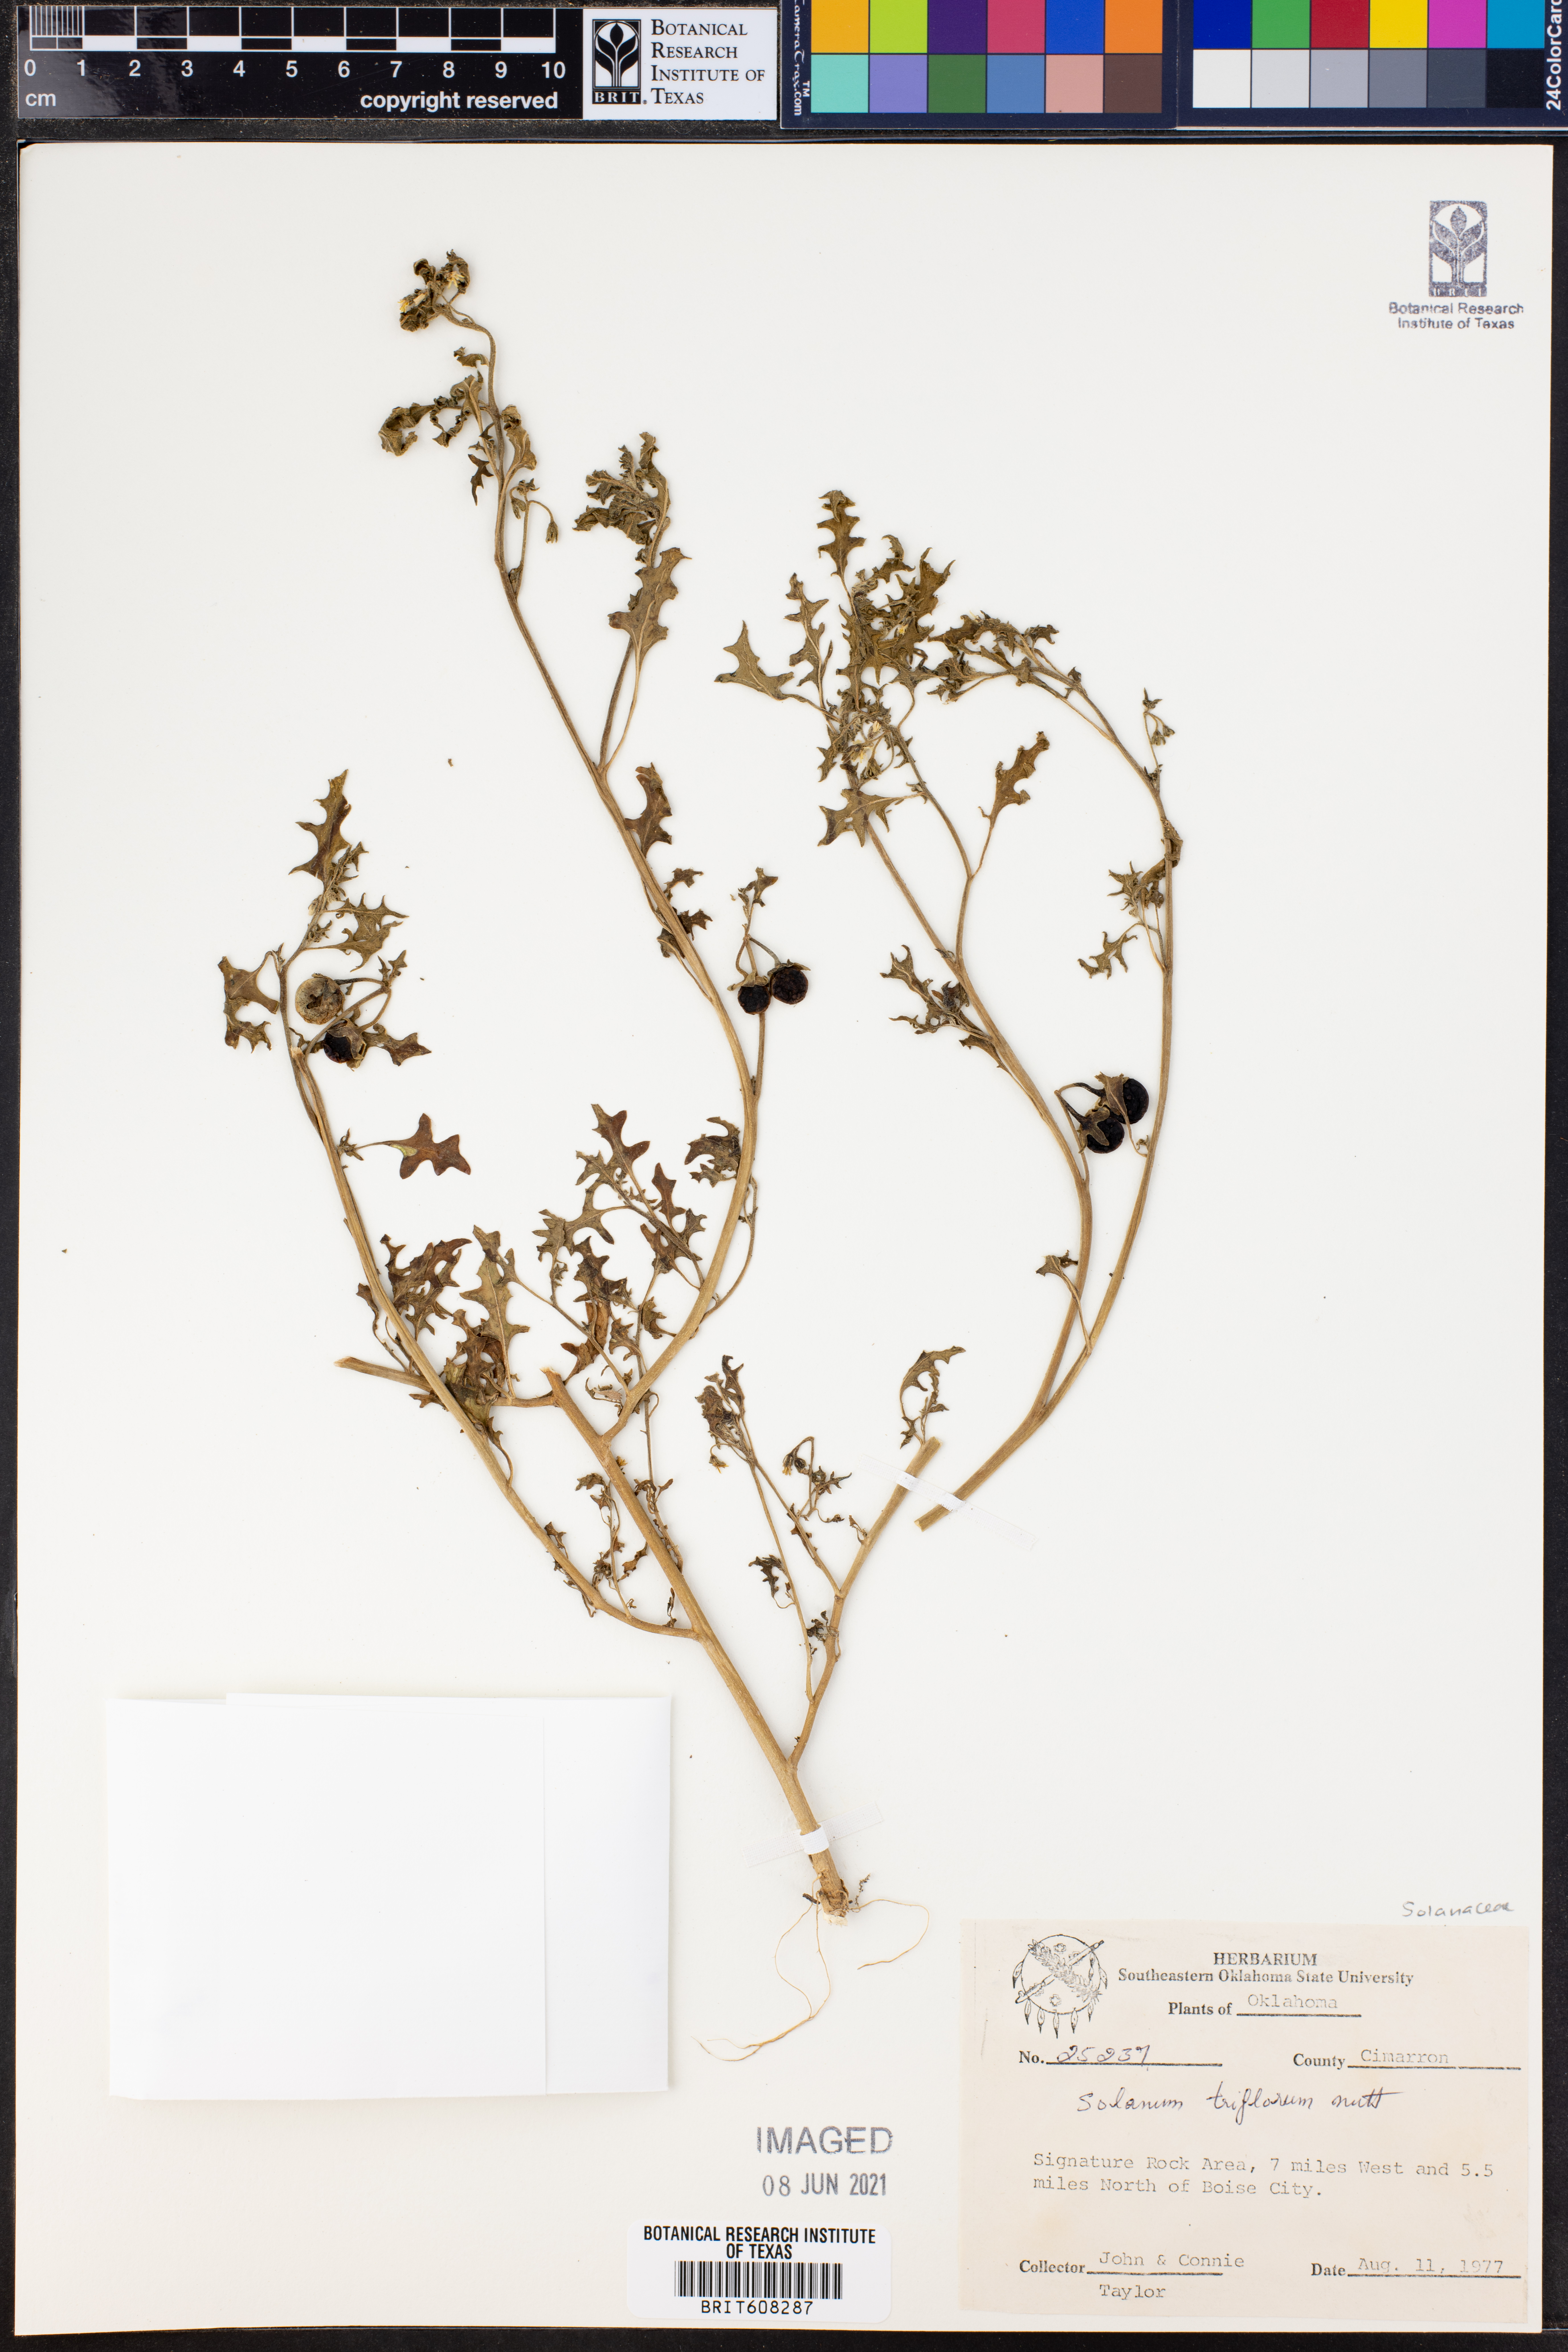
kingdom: Plantae
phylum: Tracheophyta
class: Magnoliopsida
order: Solanales
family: Solanaceae
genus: Solanum
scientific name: Solanum triflorum
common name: Small nightshade
